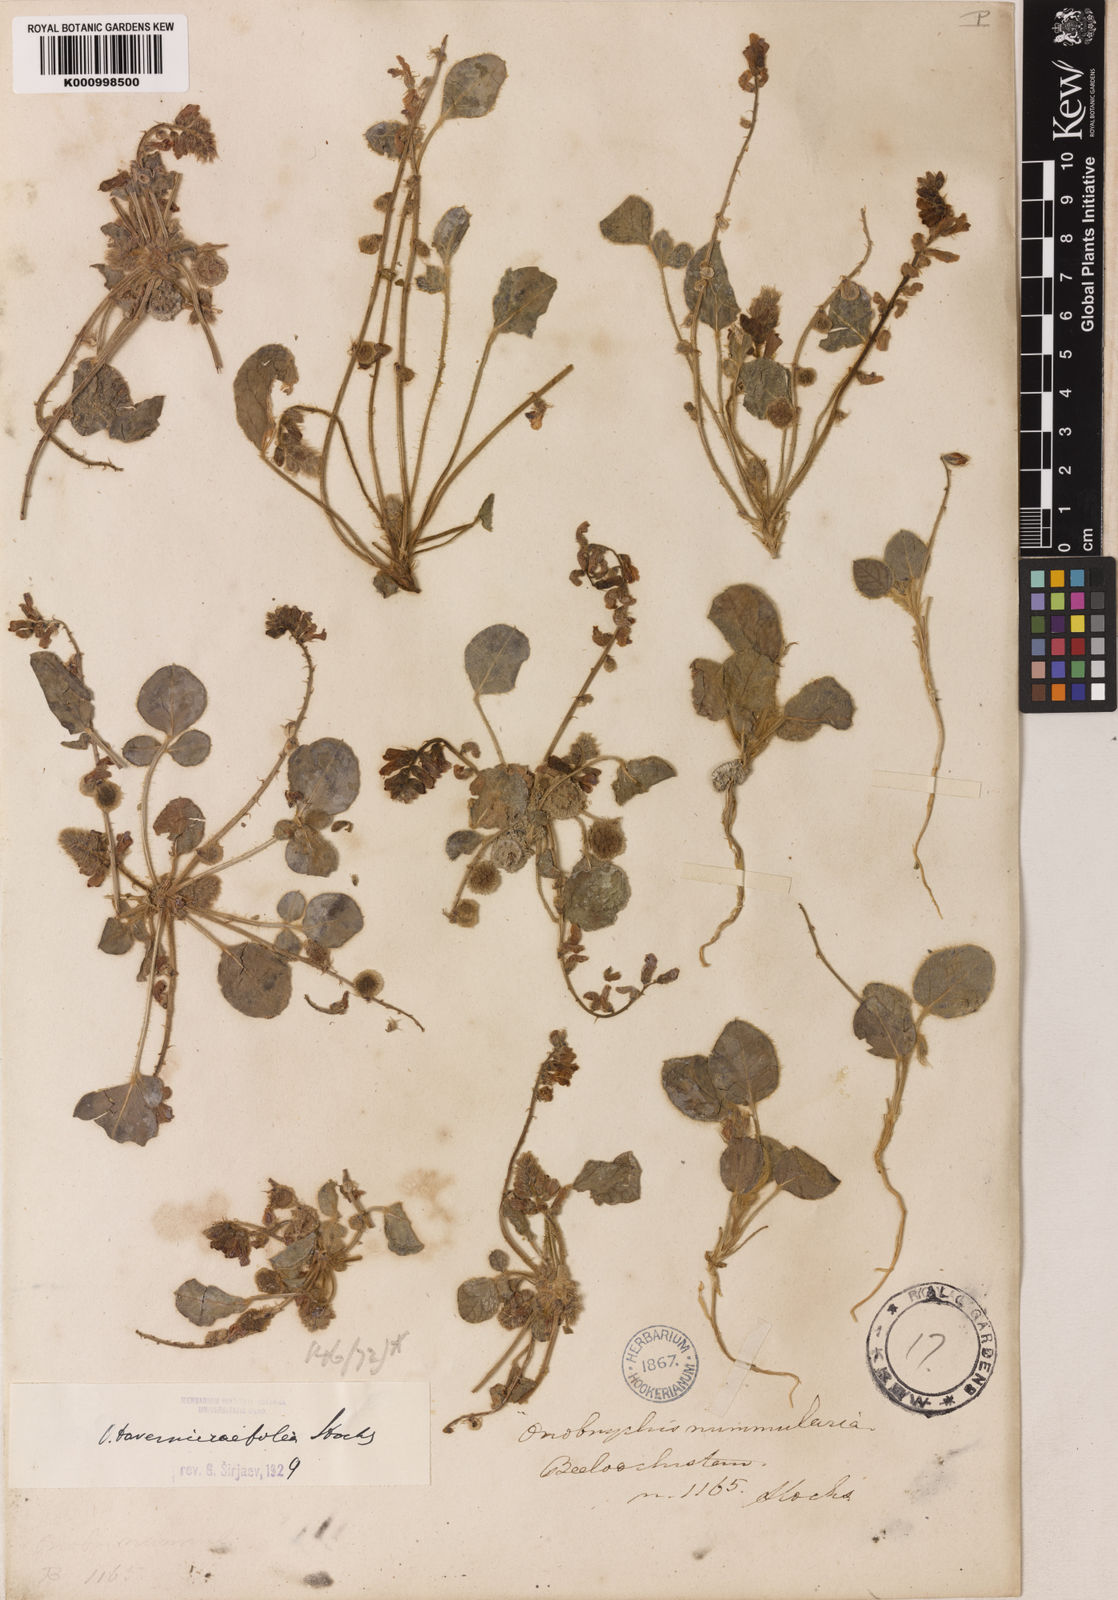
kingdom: Plantae
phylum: Tracheophyta
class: Magnoliopsida
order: Fabales
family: Fabaceae
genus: Onobrychis
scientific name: Onobrychis tavernierifolia
